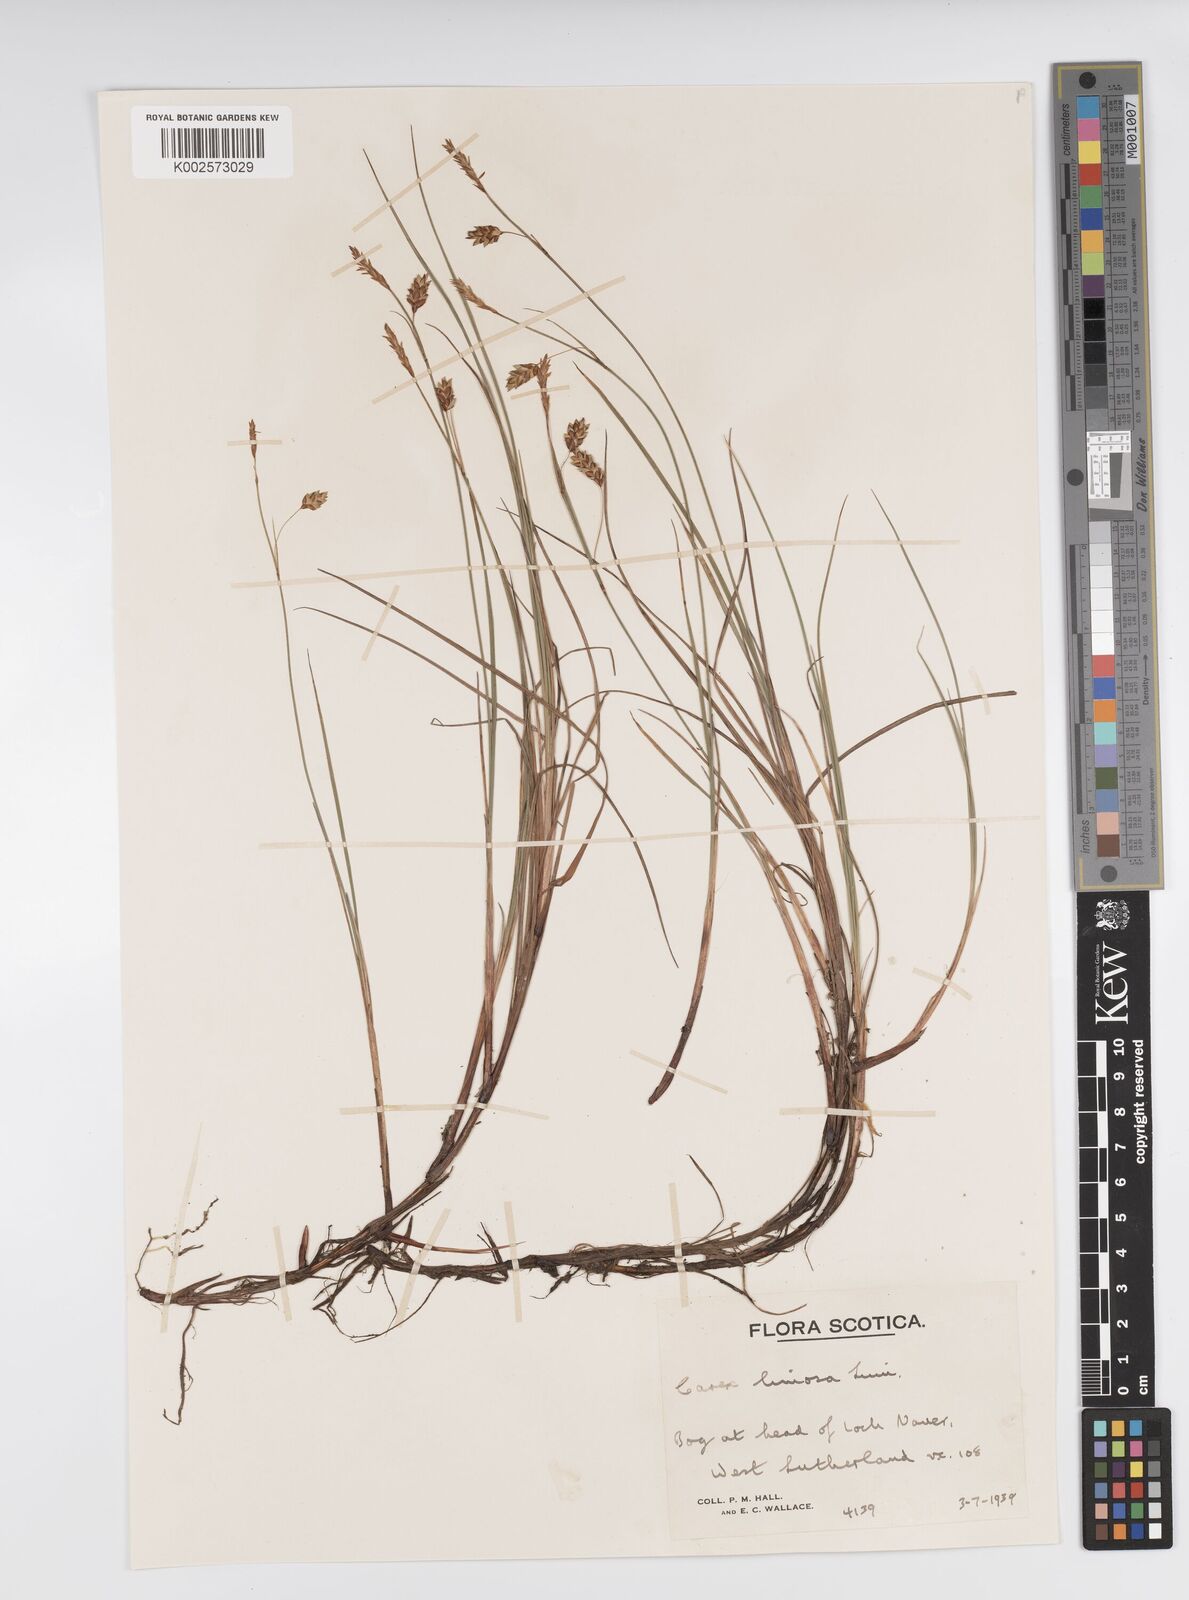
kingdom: Plantae
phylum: Tracheophyta
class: Liliopsida
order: Poales
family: Cyperaceae
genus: Carex
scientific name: Carex limosa
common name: Bog sedge
